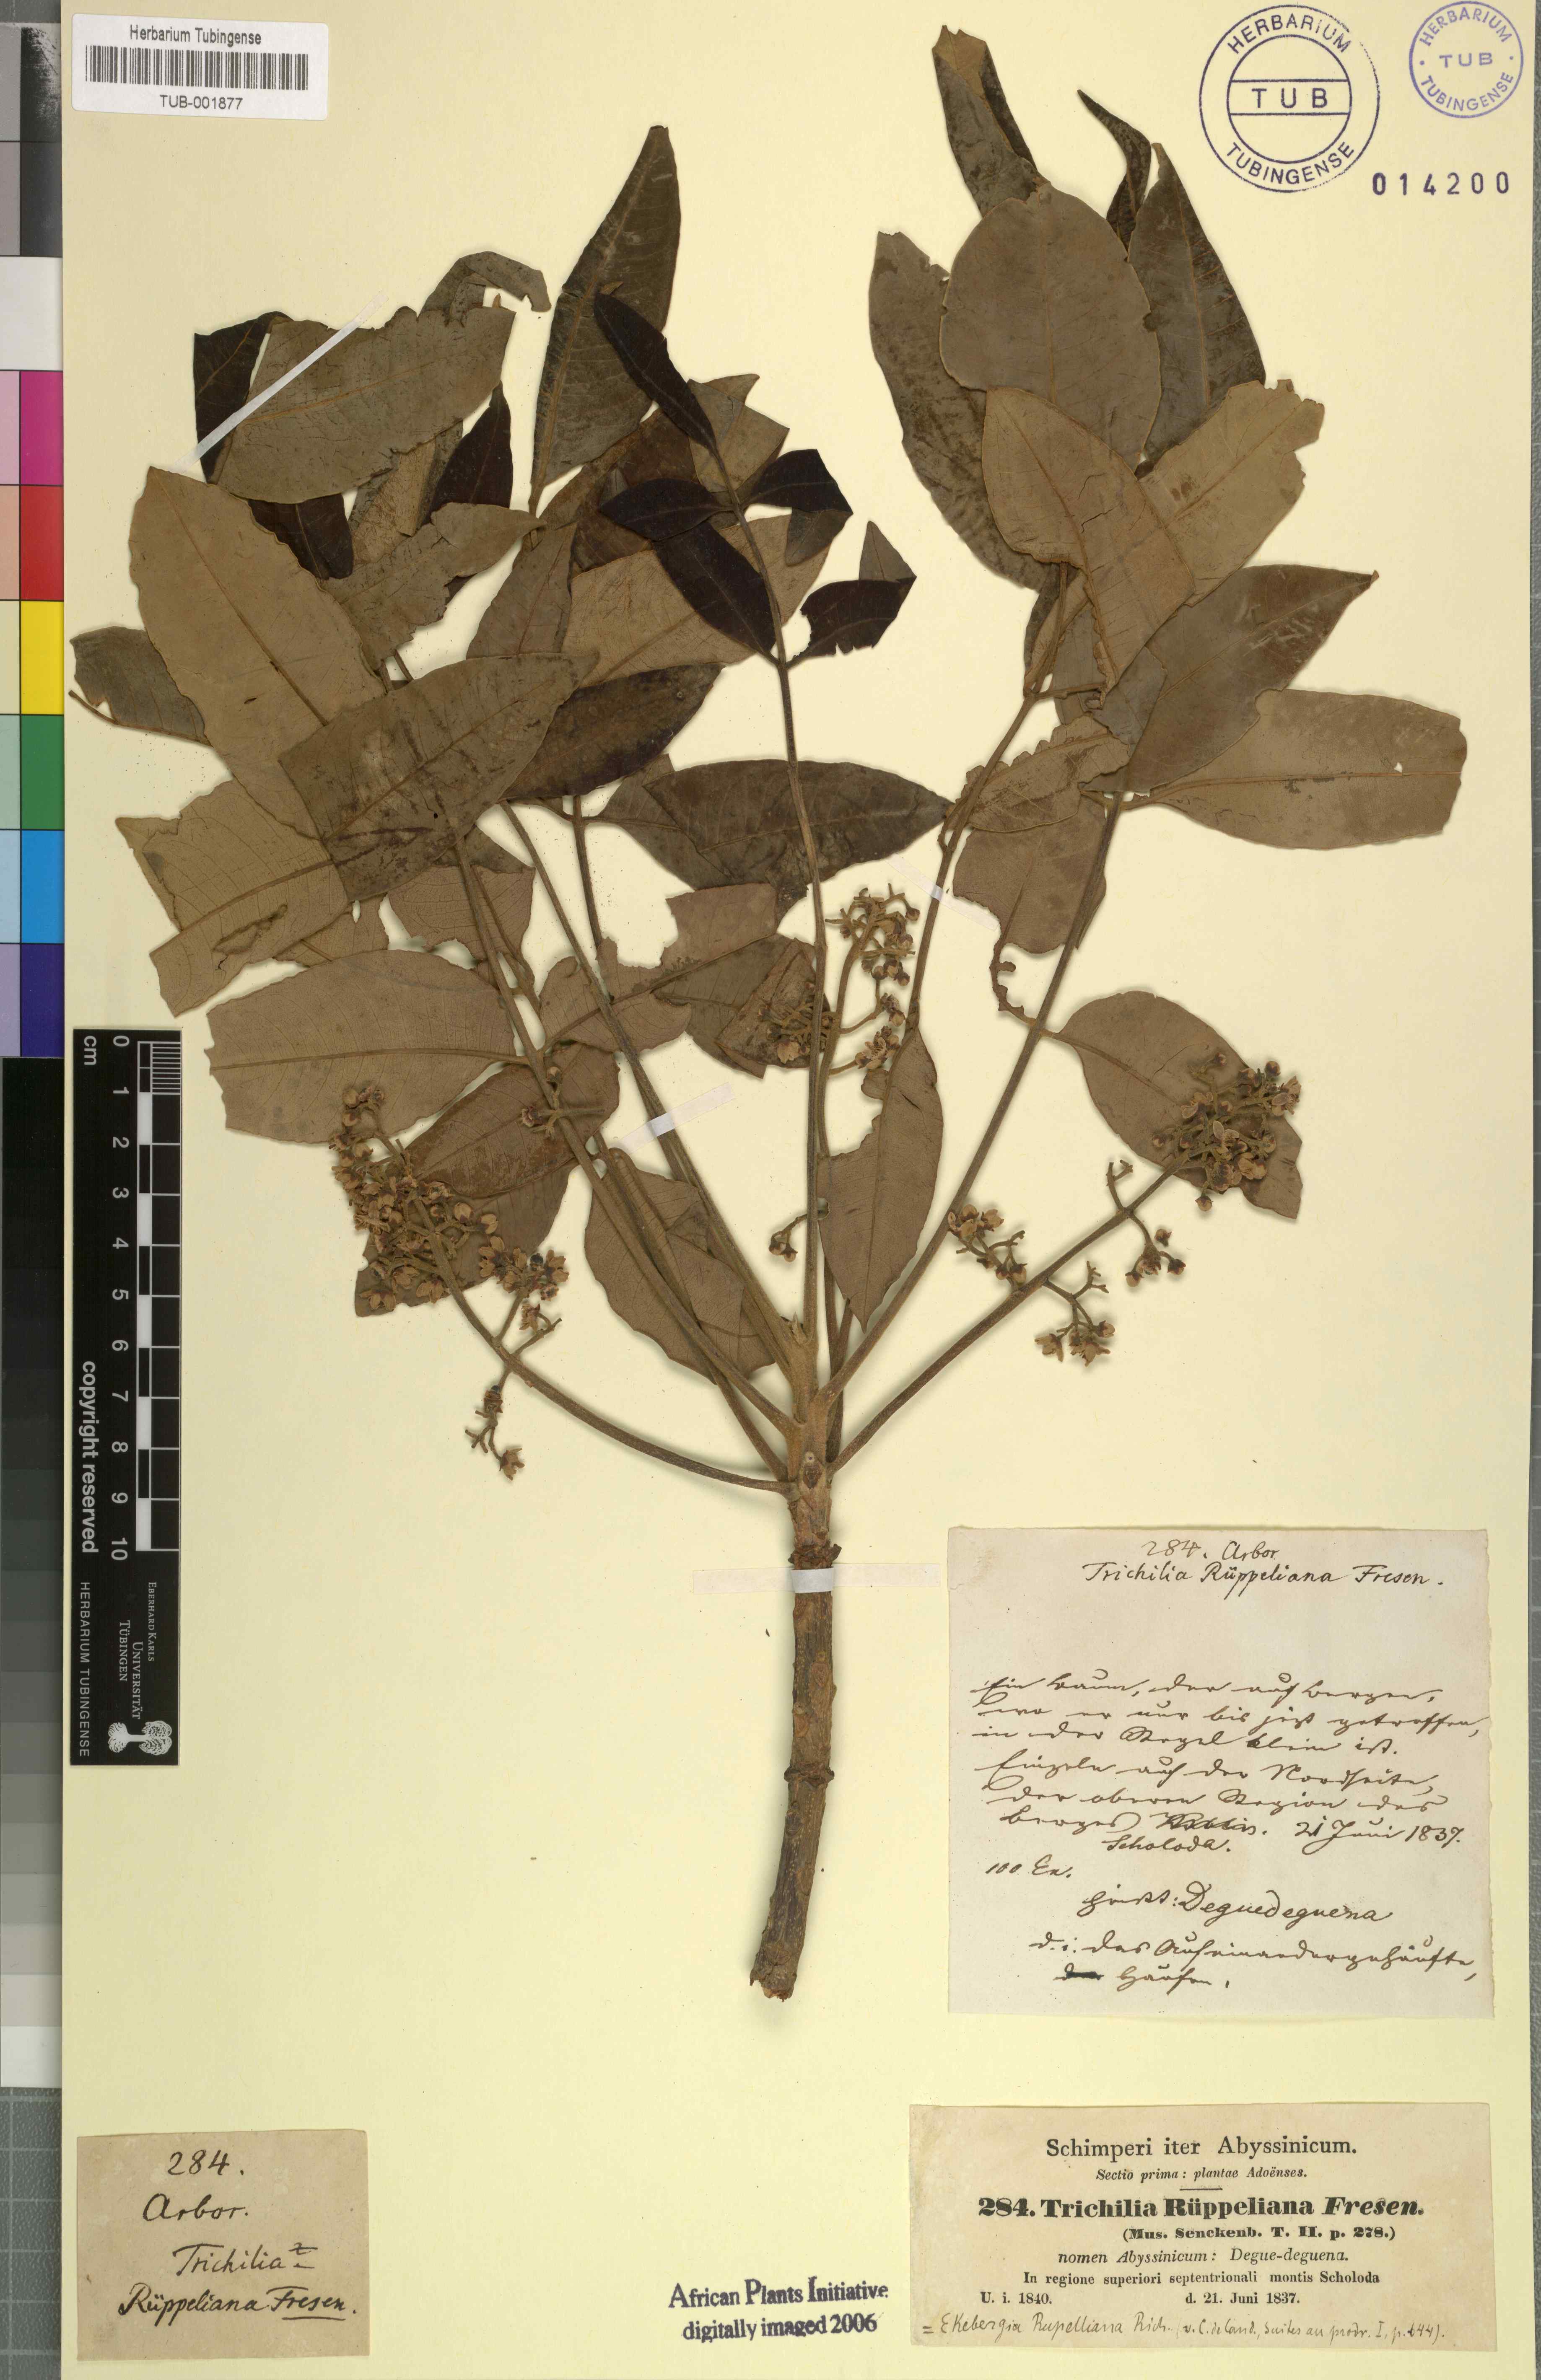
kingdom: Plantae
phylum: Tracheophyta
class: Magnoliopsida
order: Sapindales
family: Meliaceae
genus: Ekebergia
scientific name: Ekebergia capensis
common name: Cape-ash
